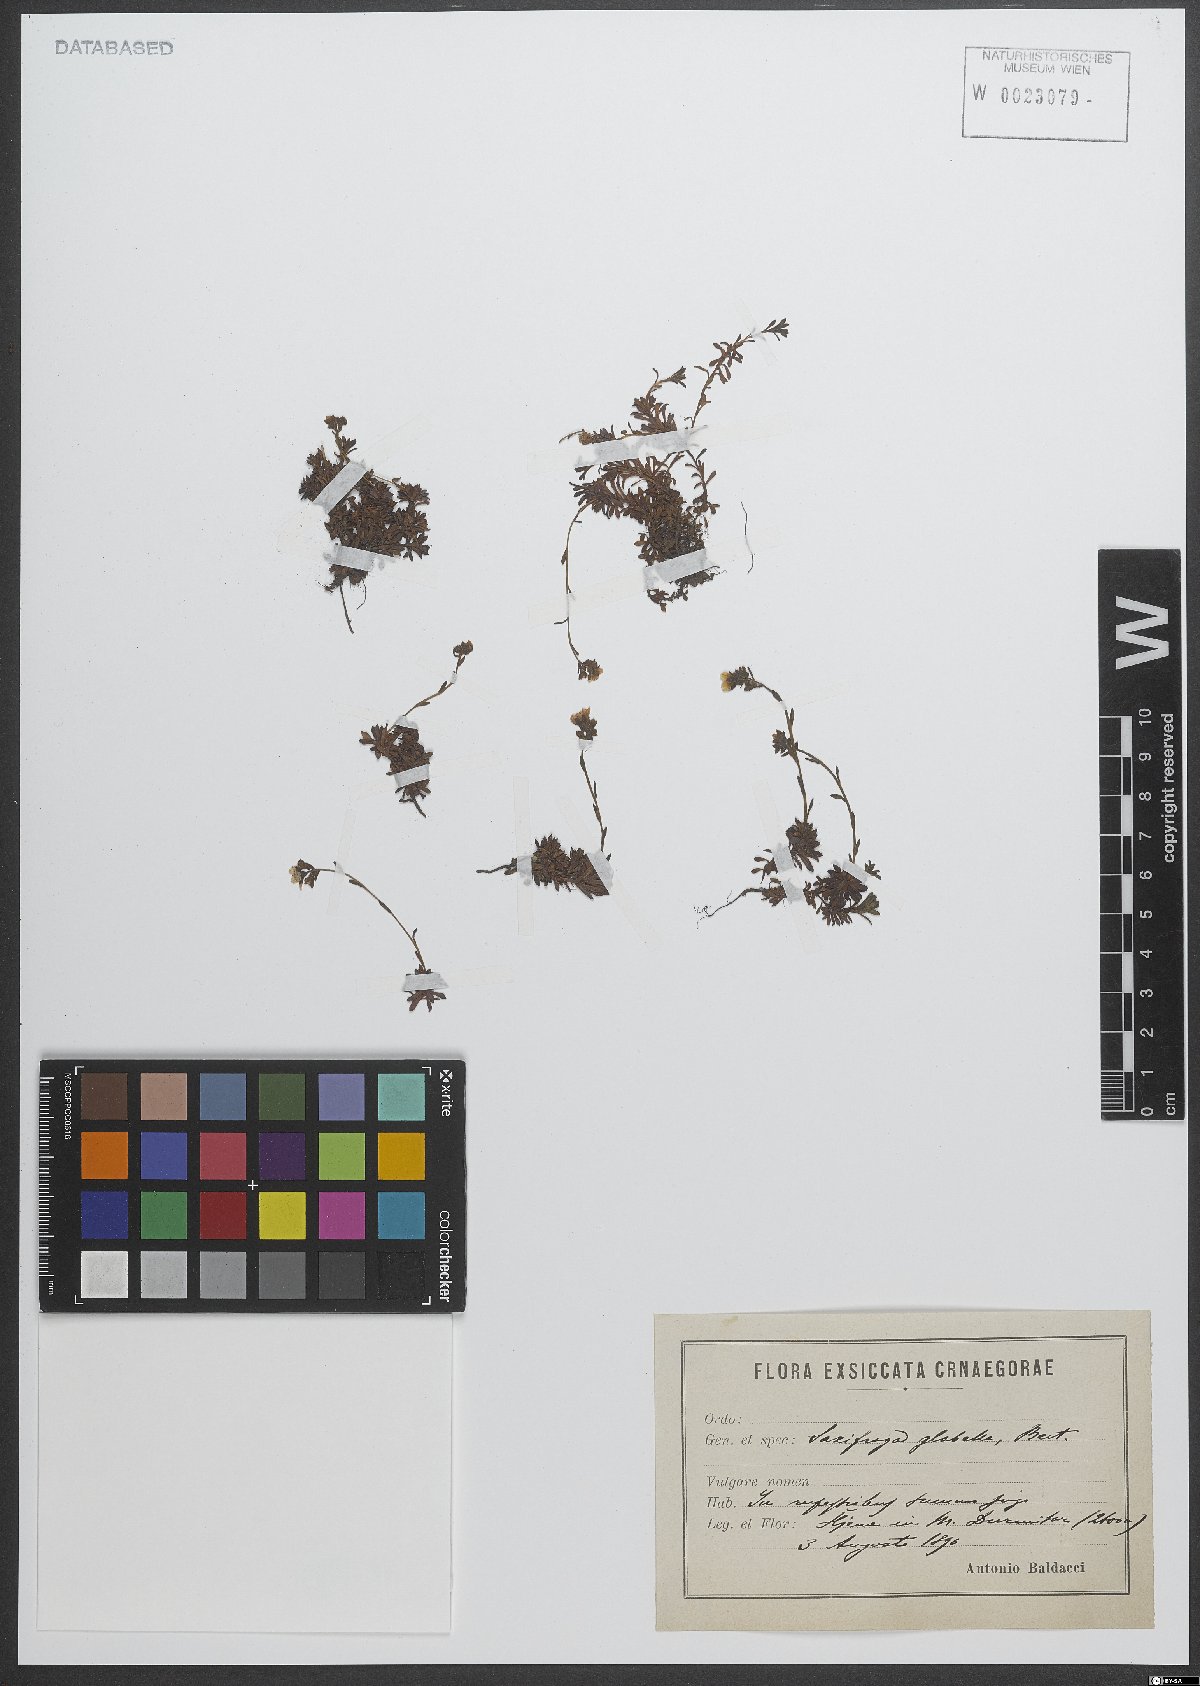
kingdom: Plantae
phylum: Tracheophyta
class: Magnoliopsida
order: Saxifragales
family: Saxifragaceae
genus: Saxifraga
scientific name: Saxifraga glabella
